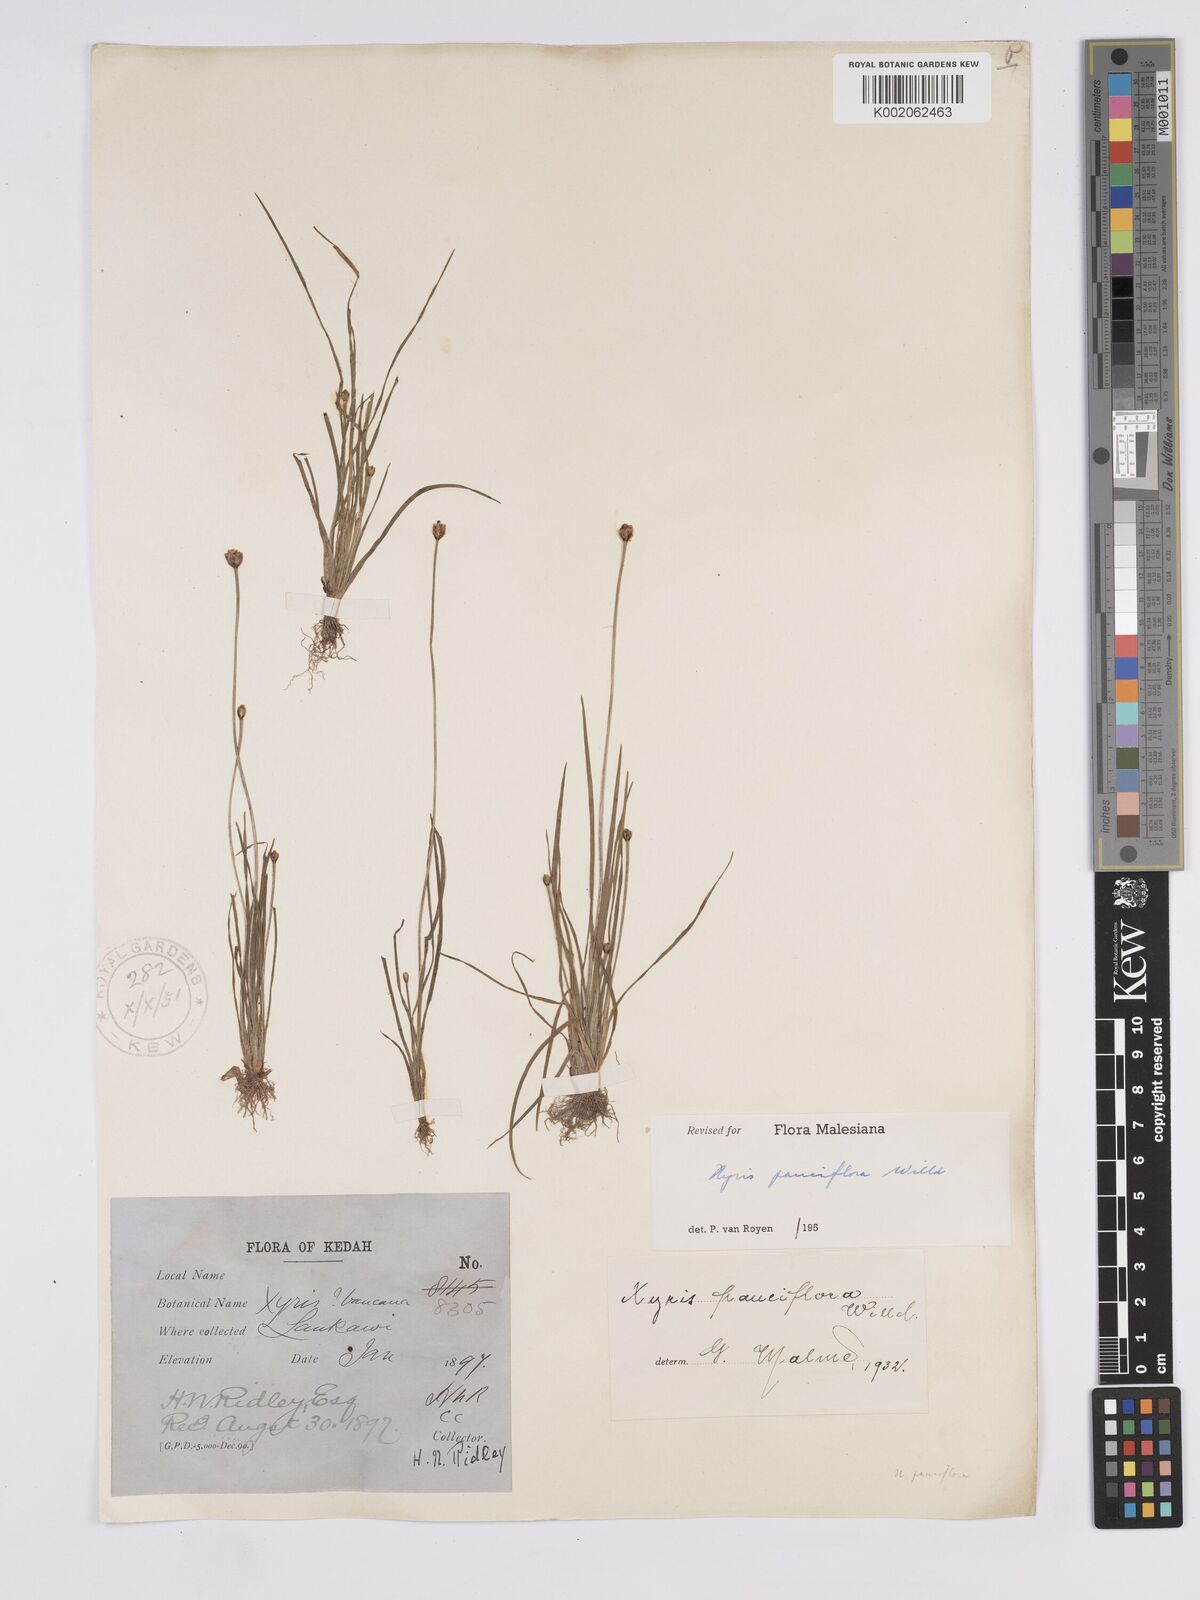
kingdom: Plantae
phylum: Tracheophyta
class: Liliopsida
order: Poales
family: Xyridaceae
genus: Xyris
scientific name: Xyris pauciflora
